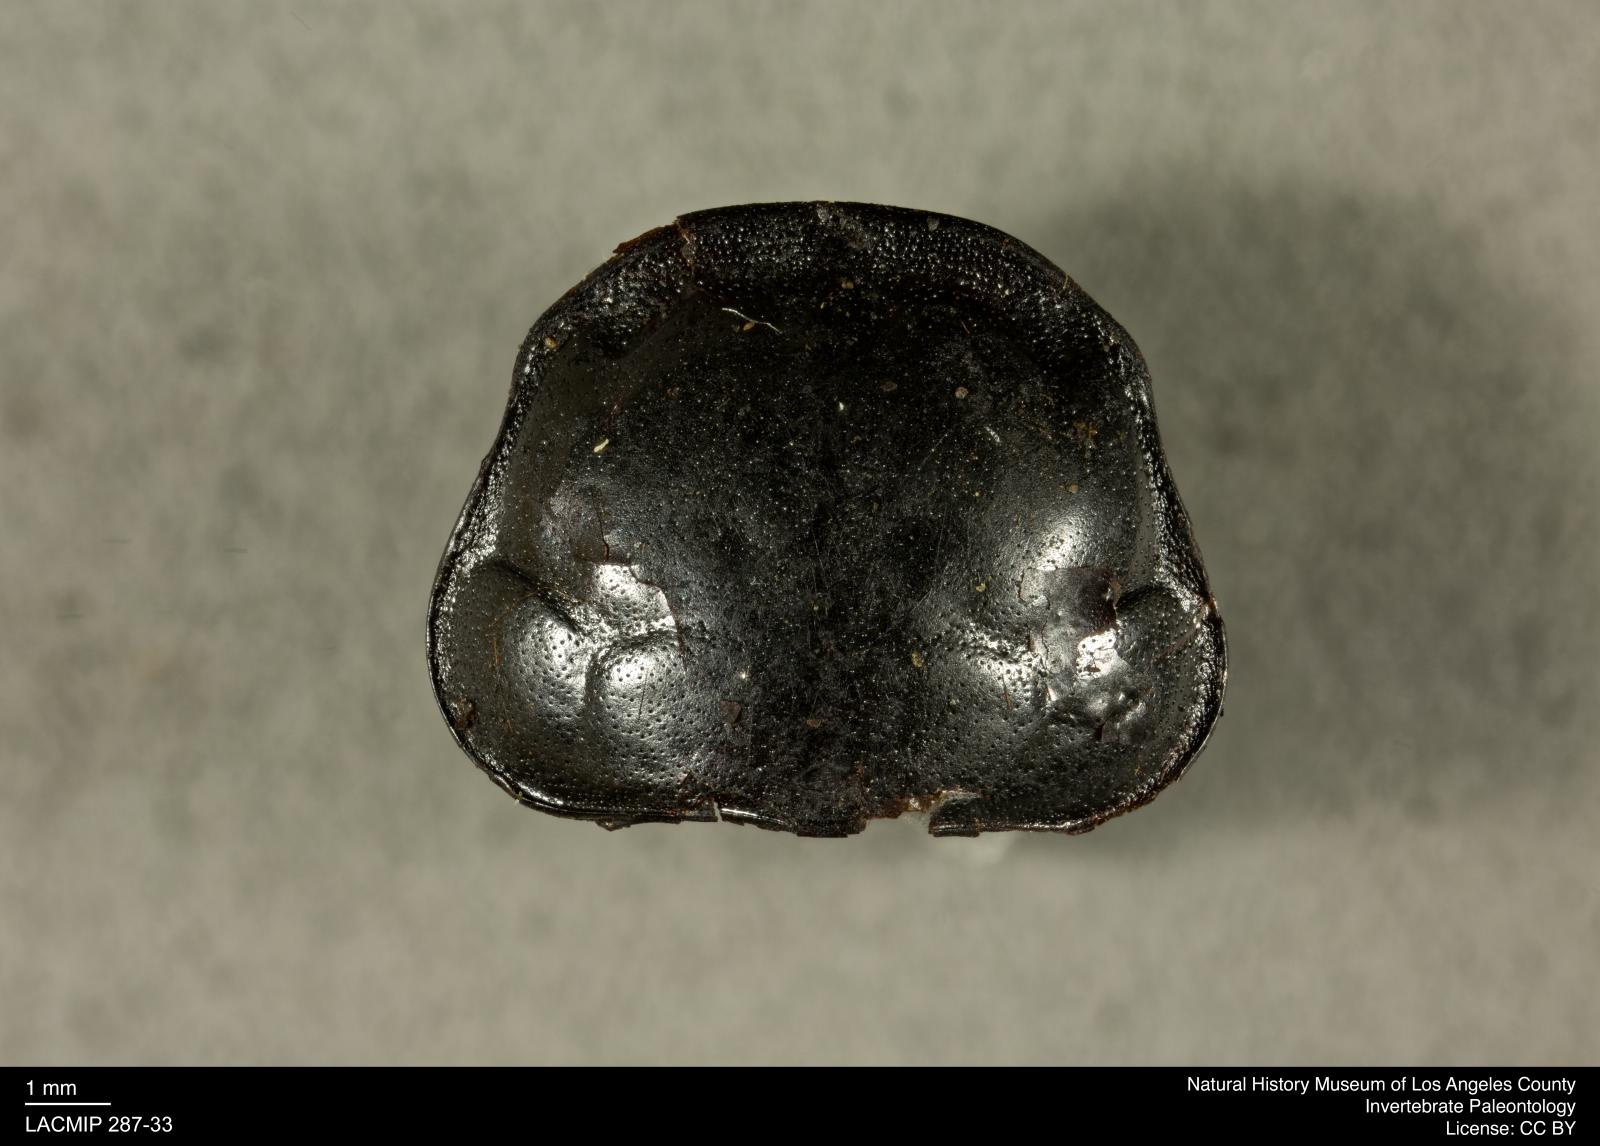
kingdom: Animalia
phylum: Arthropoda
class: Insecta
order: Coleoptera
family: Staphylinidae
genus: Nicrophorus
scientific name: Nicrophorus marginatus
